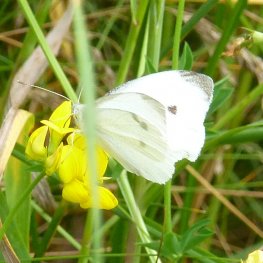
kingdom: Animalia
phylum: Arthropoda
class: Insecta
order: Lepidoptera
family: Pieridae
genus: Pieris
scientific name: Pieris rapae
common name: Cabbage White
